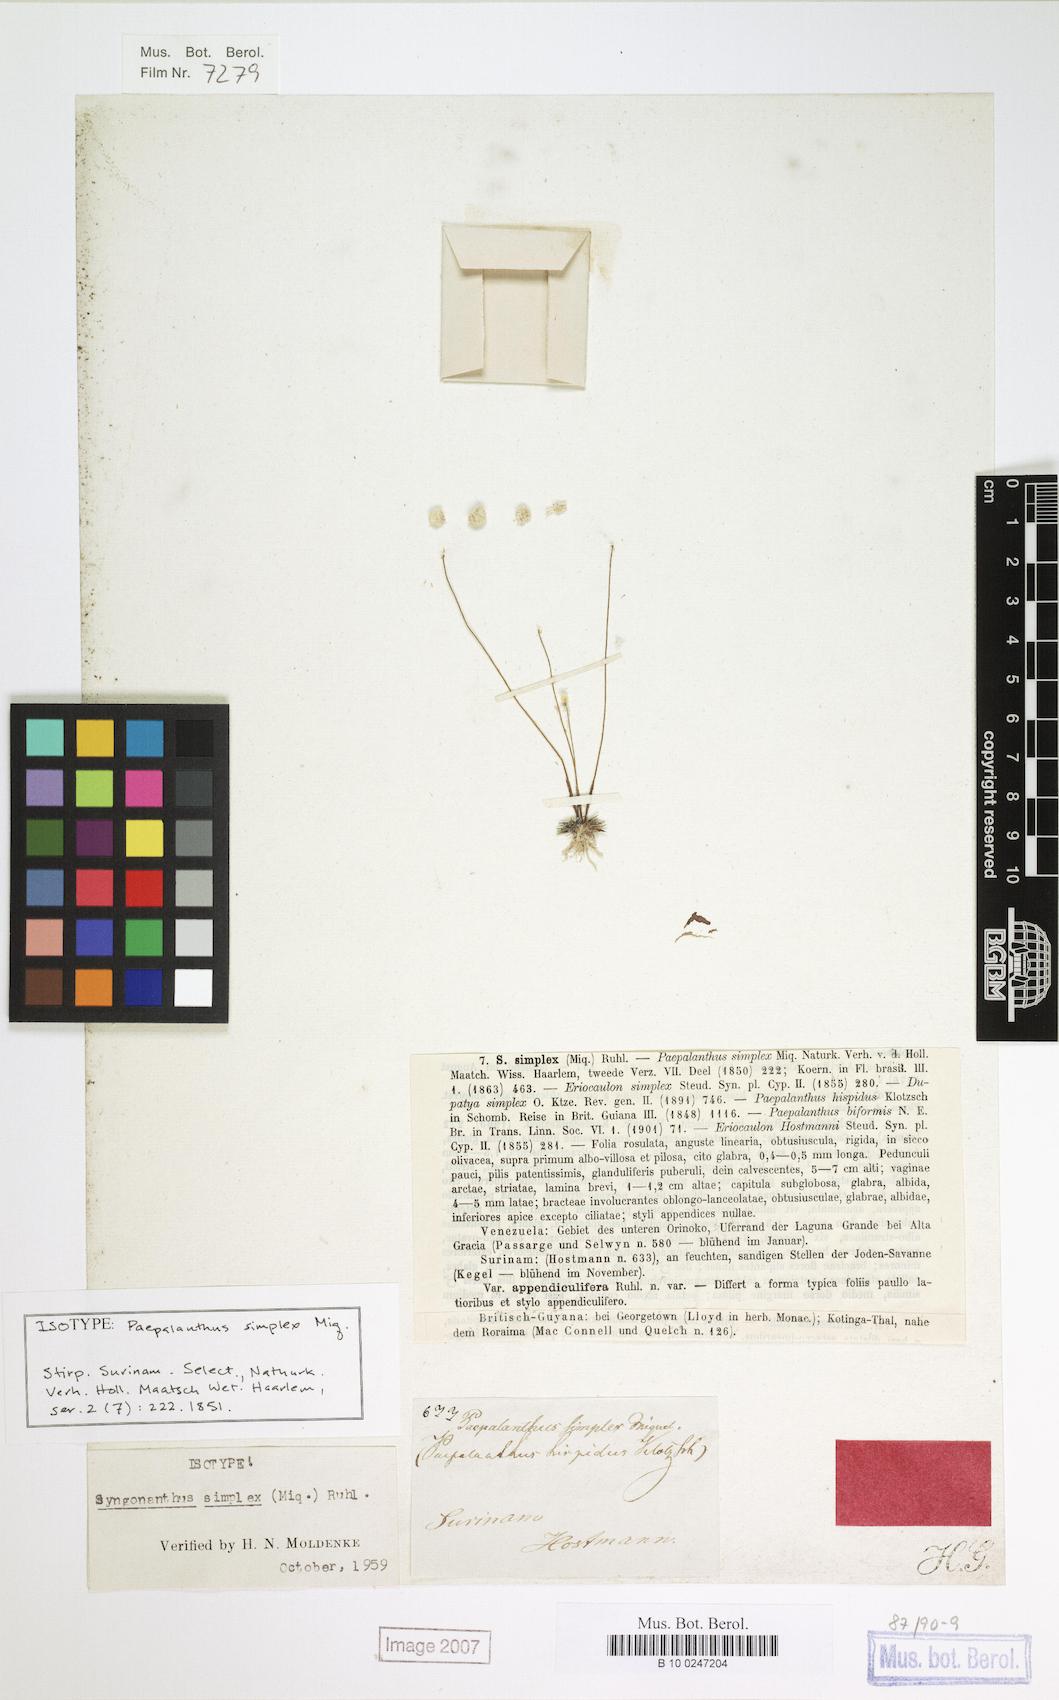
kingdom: Plantae
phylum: Tracheophyta
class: Liliopsida
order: Poales
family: Eriocaulaceae
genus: Syngonanthus
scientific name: Syngonanthus simplex
